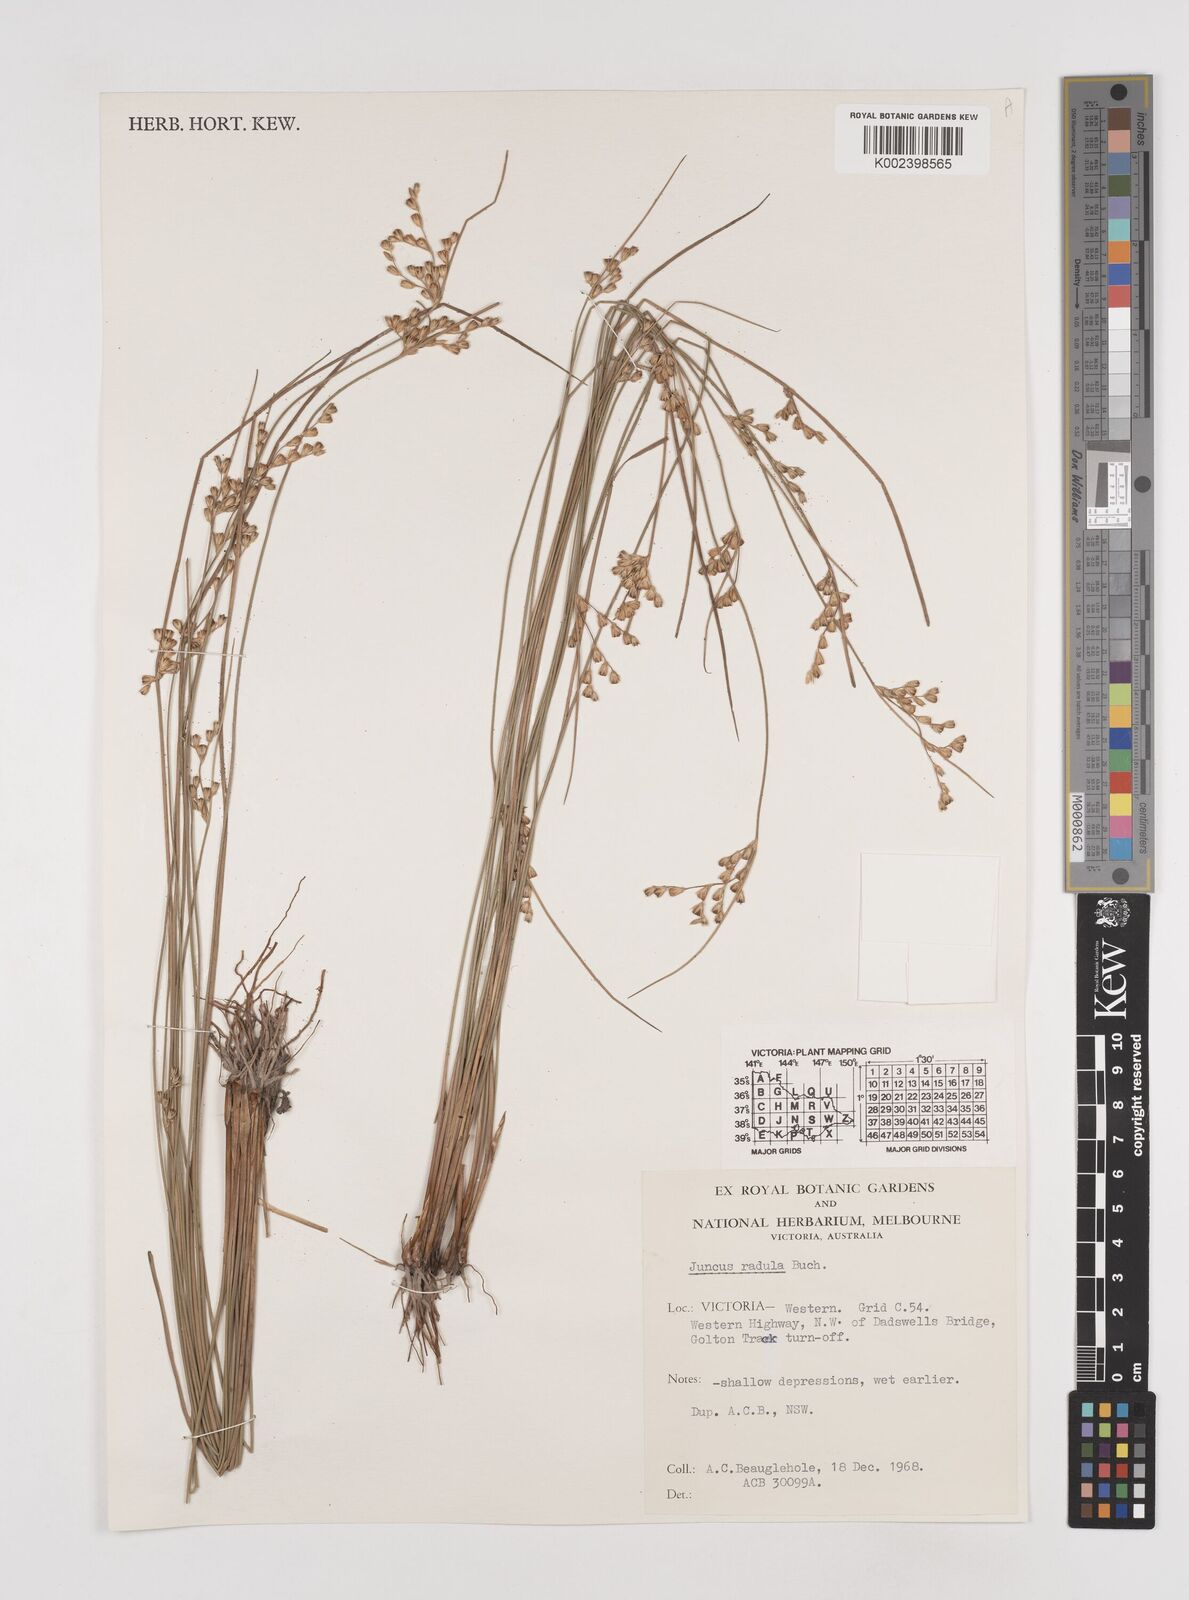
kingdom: Plantae
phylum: Tracheophyta
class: Liliopsida
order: Poales
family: Juncaceae
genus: Juncus
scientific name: Juncus radula
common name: Hoary rush
